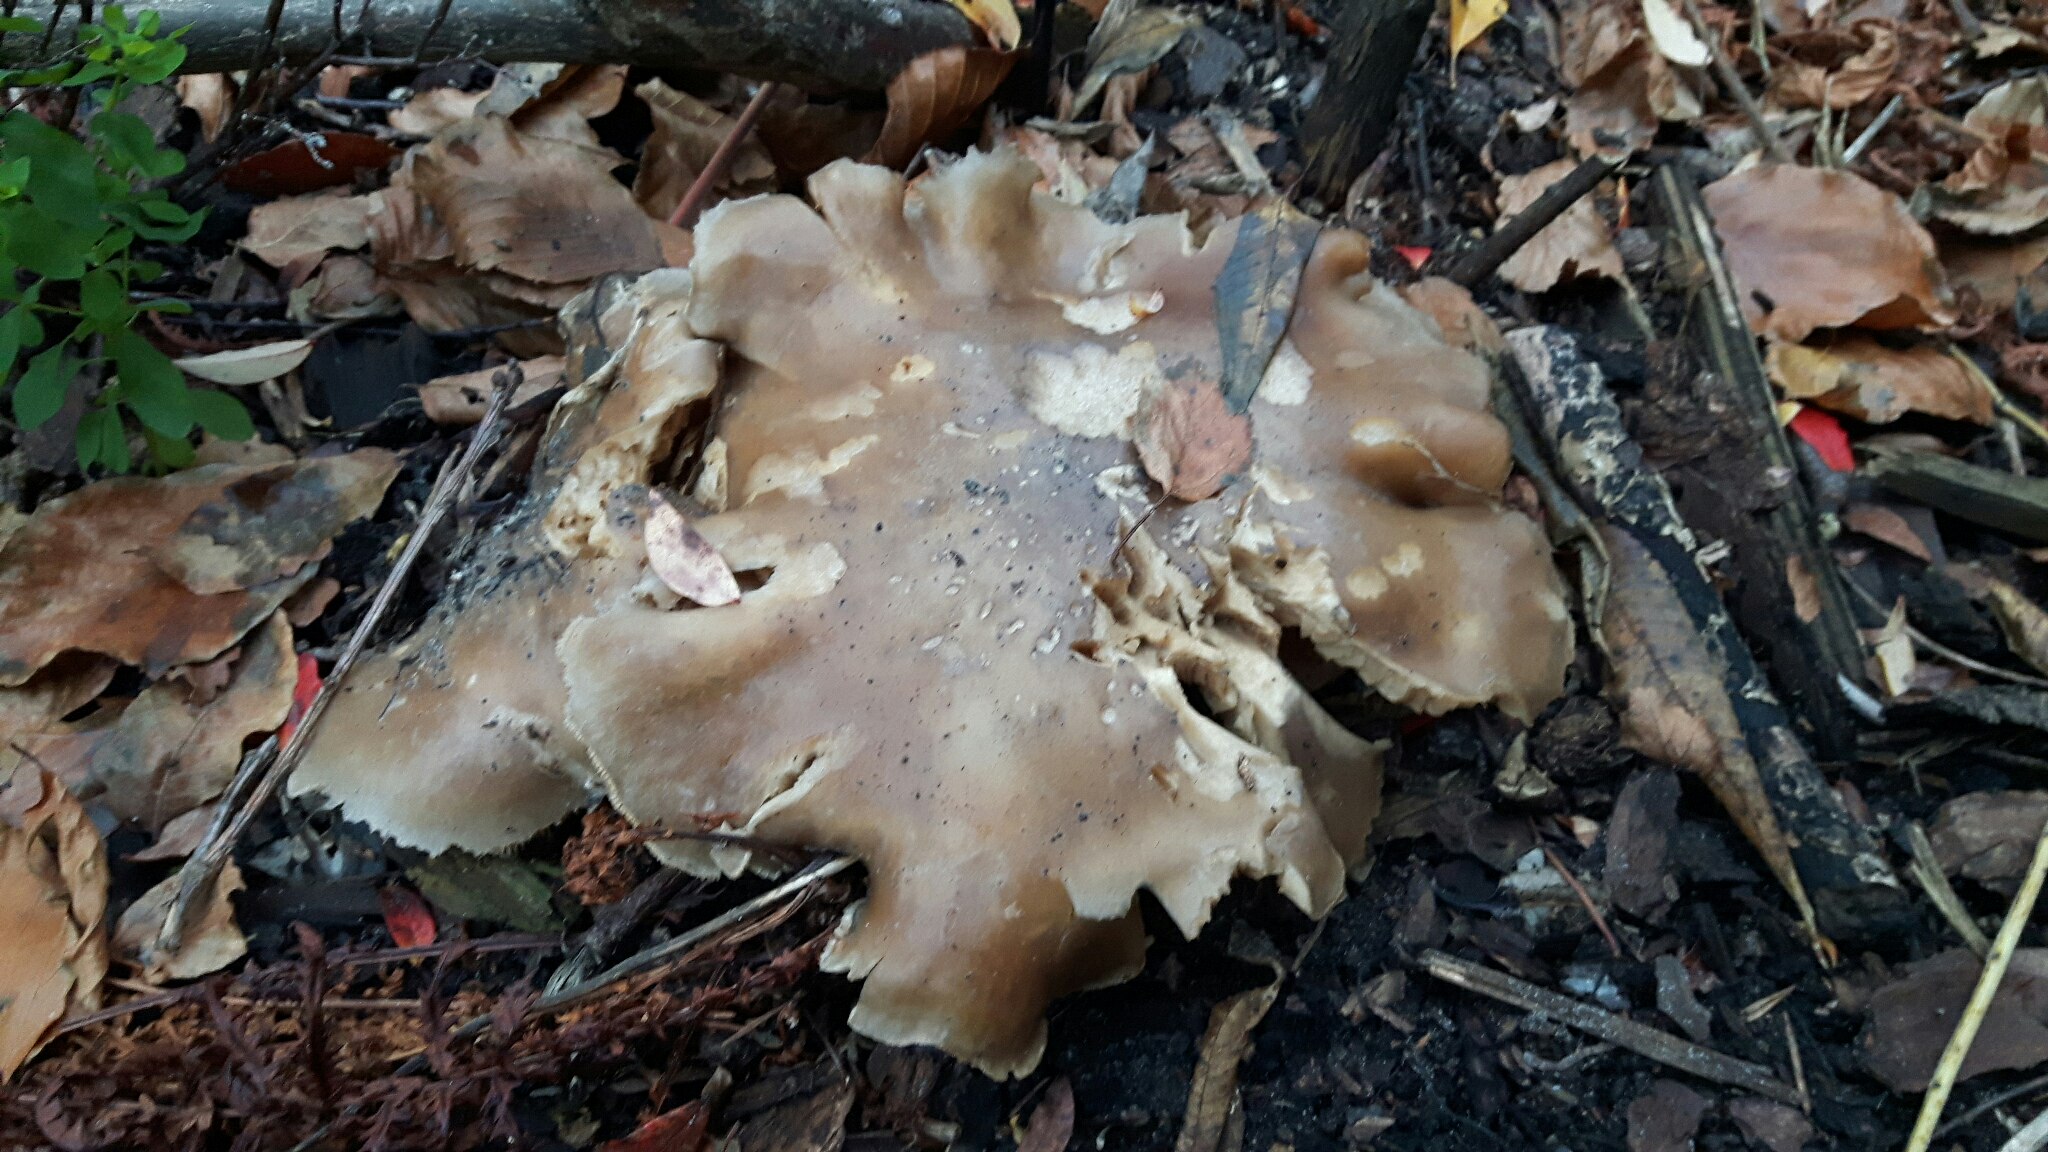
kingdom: Fungi
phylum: Basidiomycota
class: Agaricomycetes
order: Agaricales
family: Tricholomataceae
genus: Clitocybe
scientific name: Clitocybe nebularis
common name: tåge-tragthat
